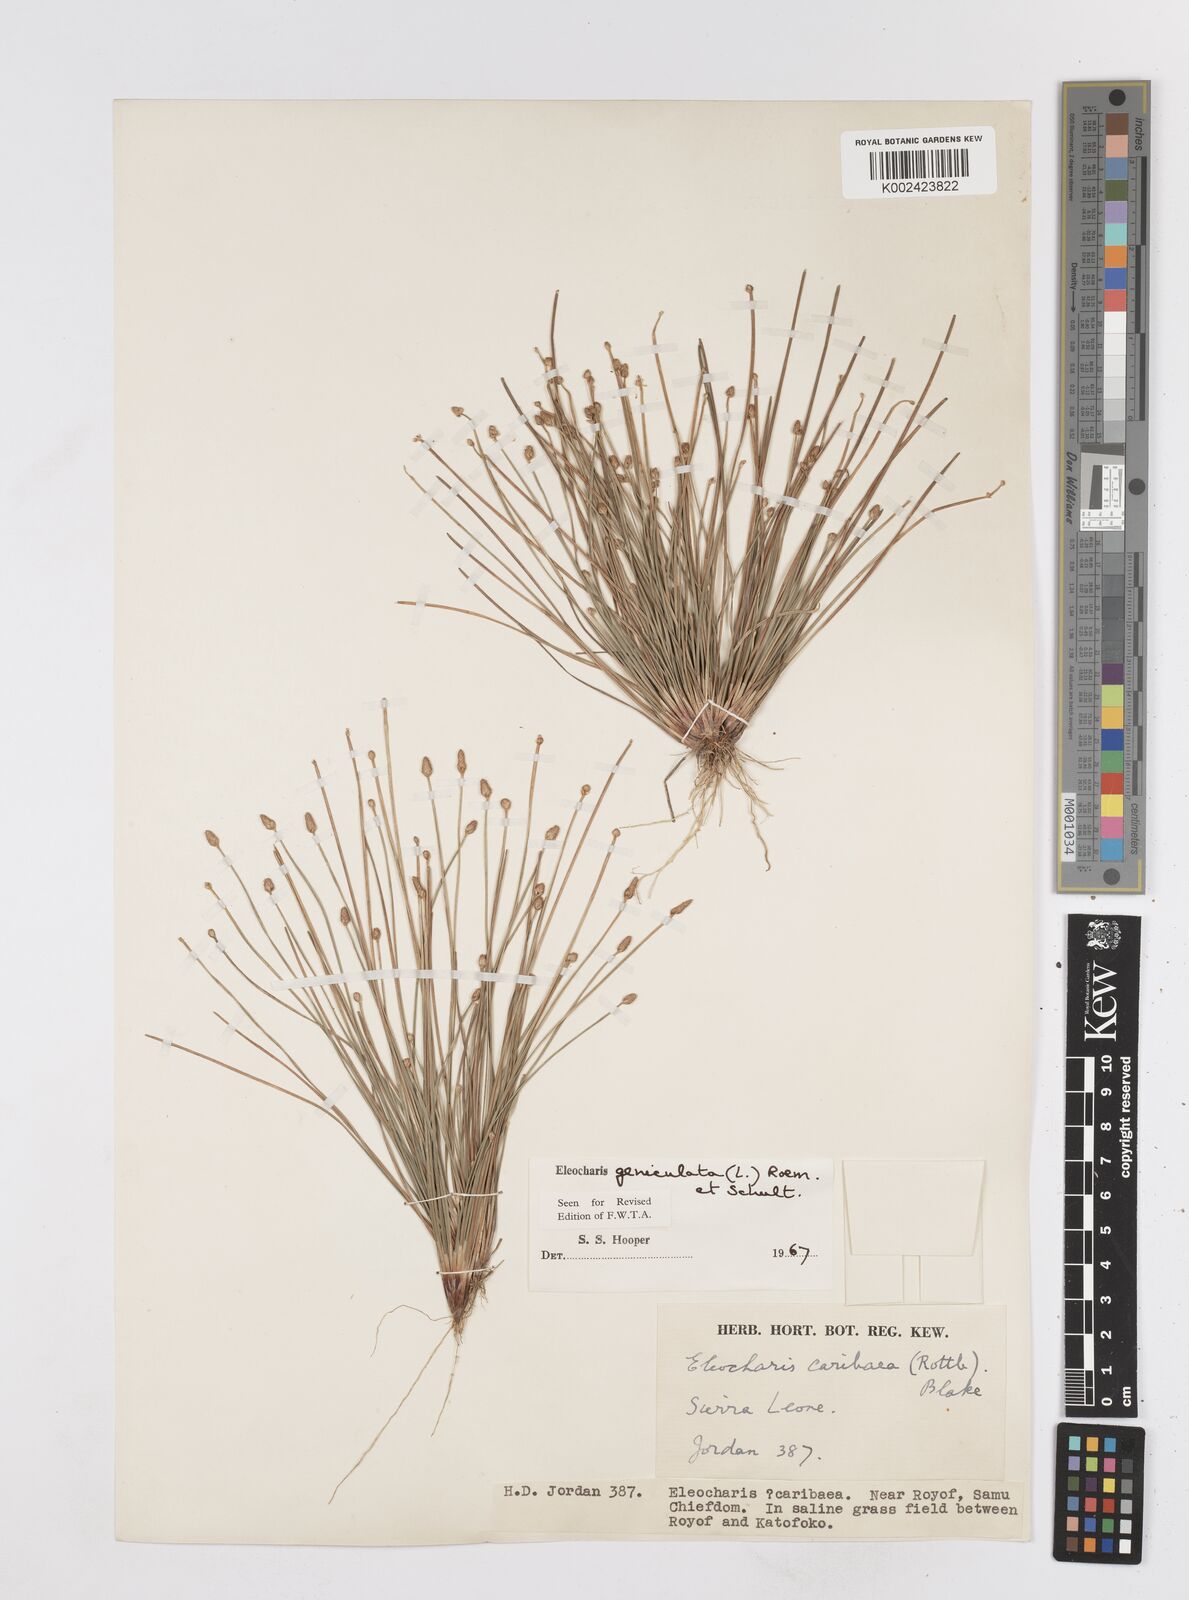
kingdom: Plantae
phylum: Tracheophyta
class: Liliopsida
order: Poales
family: Cyperaceae
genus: Eleocharis
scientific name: Eleocharis geniculata
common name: Canada spikesedge
